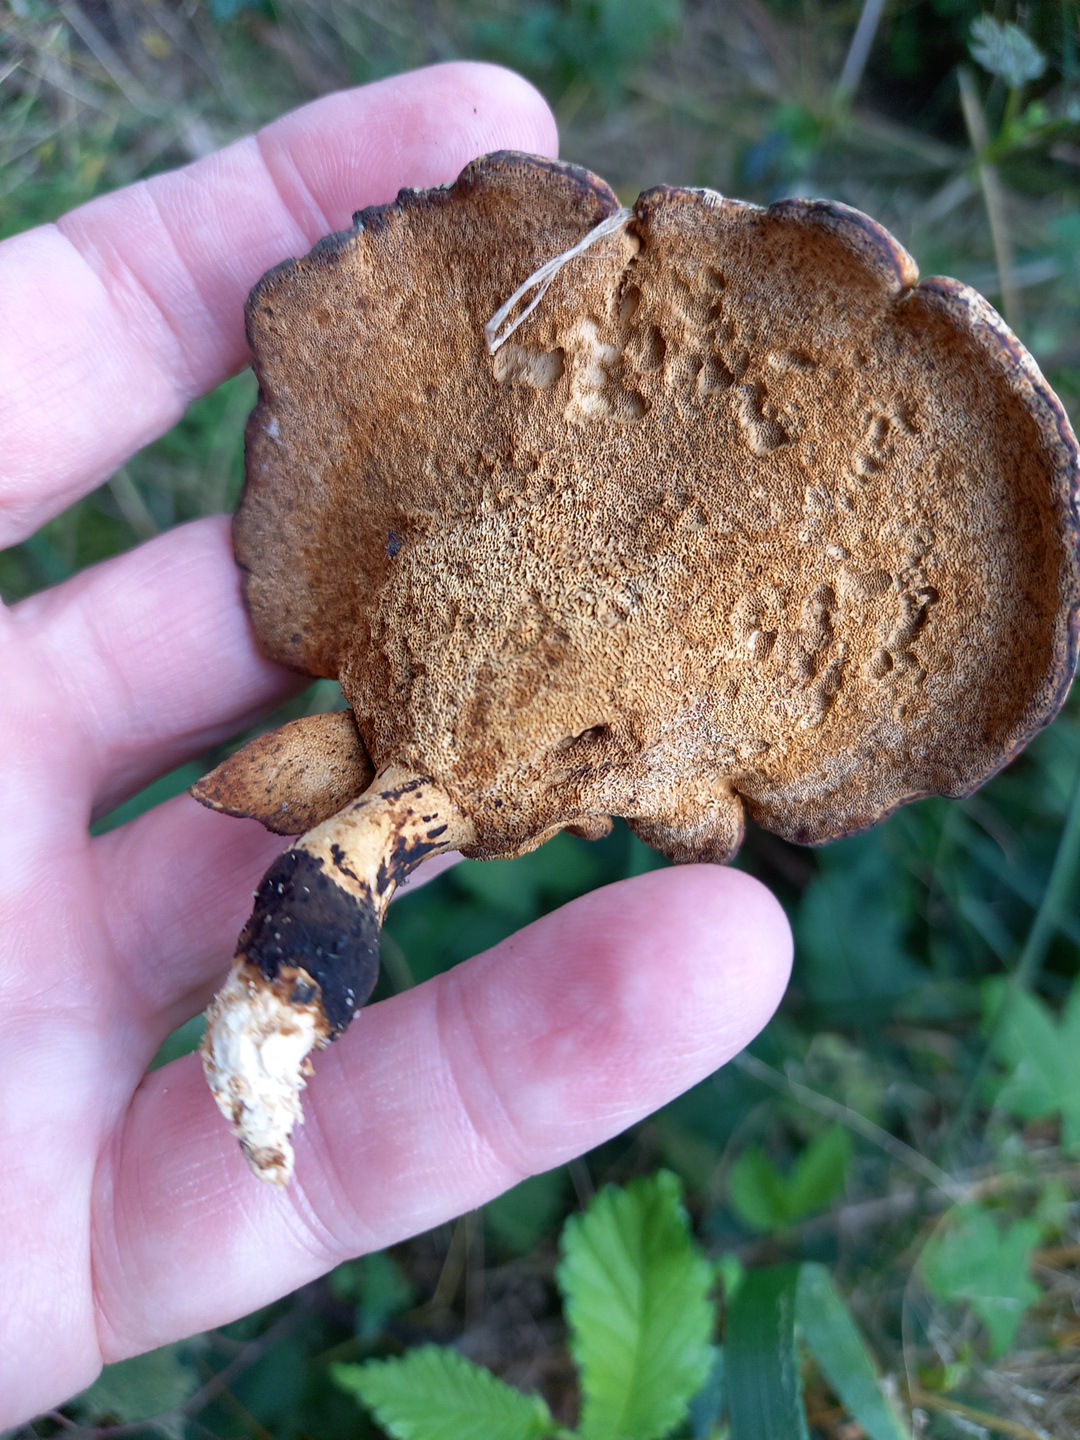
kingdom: Fungi
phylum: Basidiomycota
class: Agaricomycetes
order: Polyporales
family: Polyporaceae
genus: Cerioporus
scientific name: Cerioporus varius
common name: foranderlig stilkporesvamp
